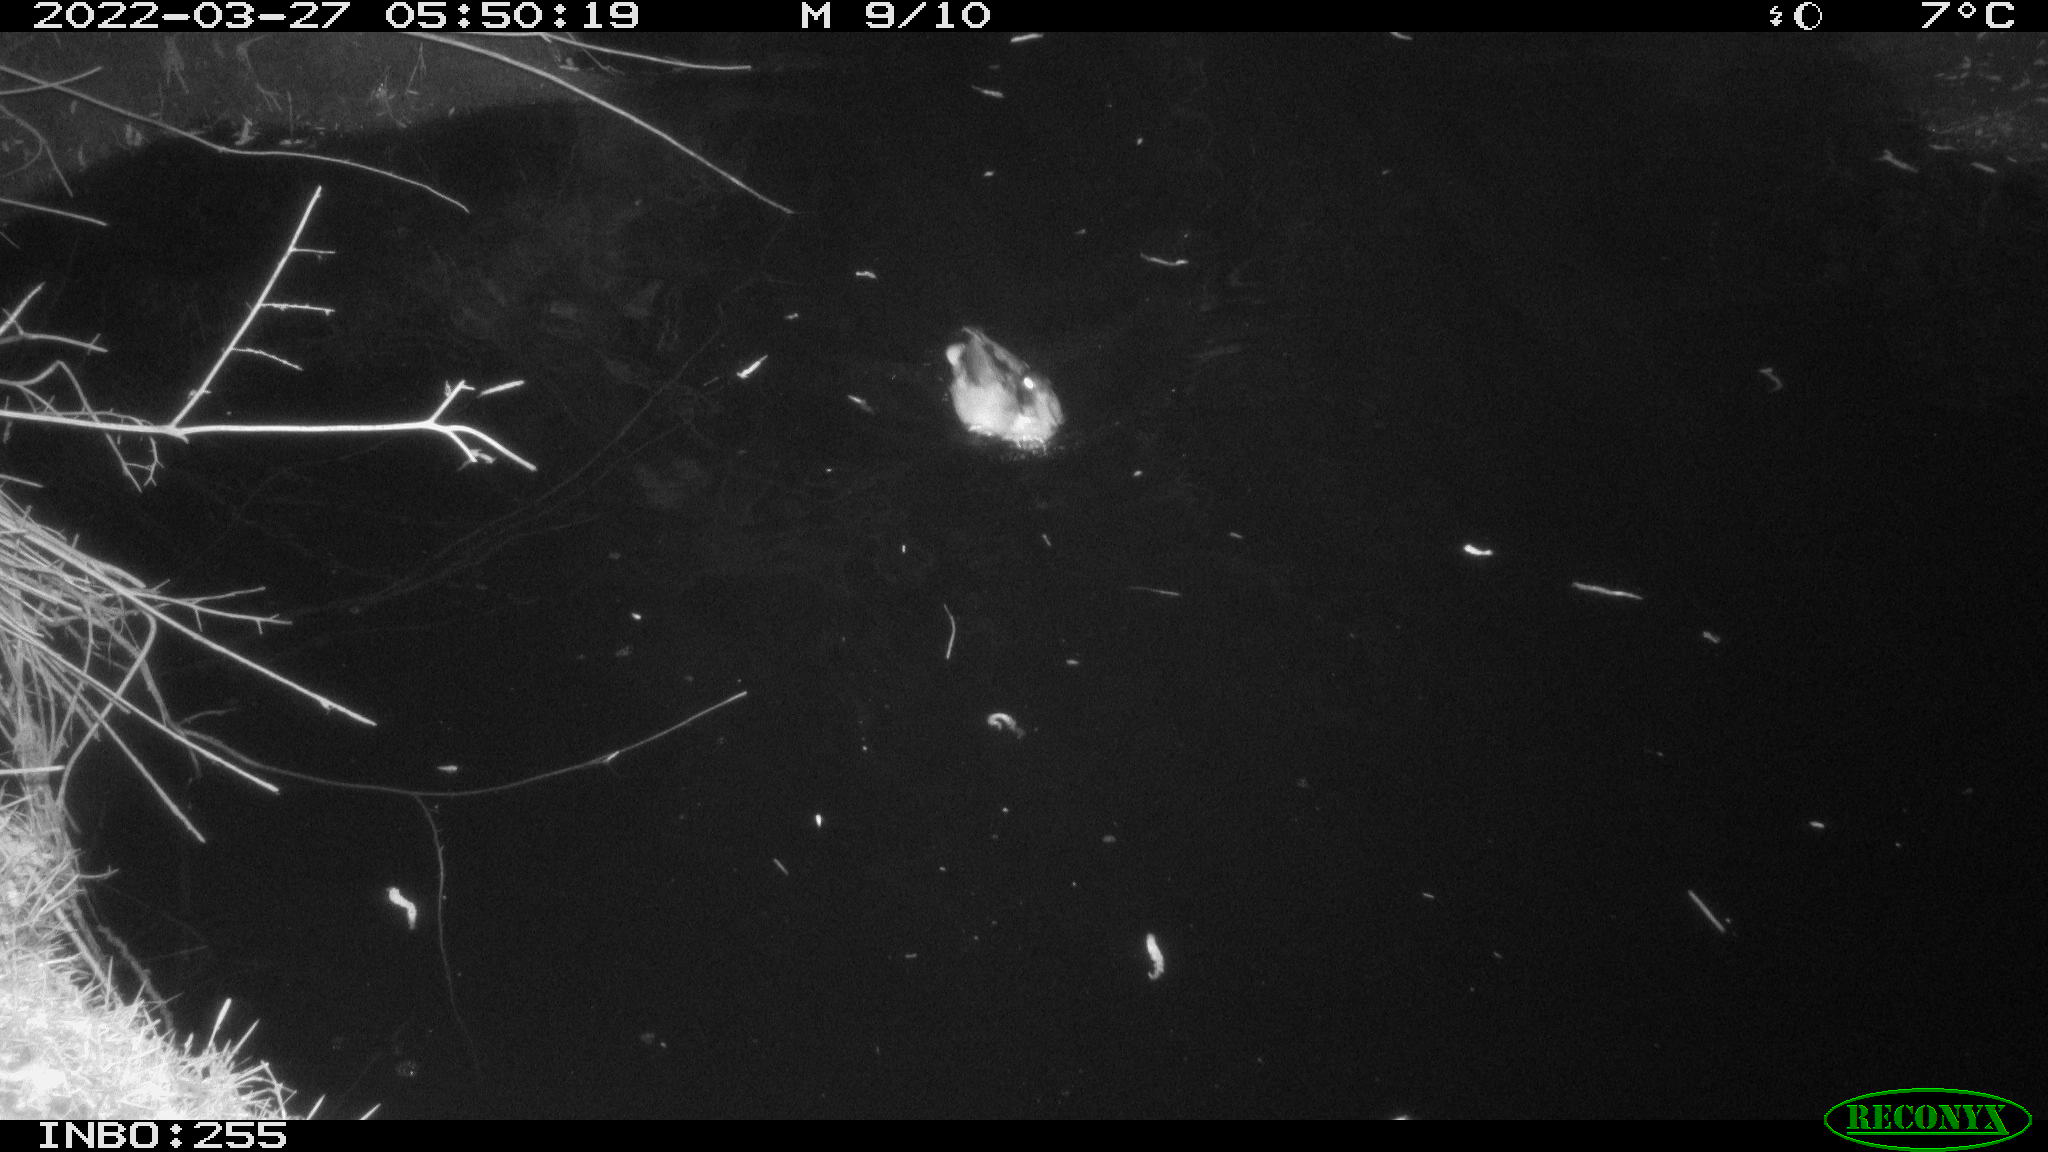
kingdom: Animalia
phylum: Chordata
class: Aves
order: Anseriformes
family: Anatidae
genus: Anas
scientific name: Anas platyrhynchos
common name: Mallard
